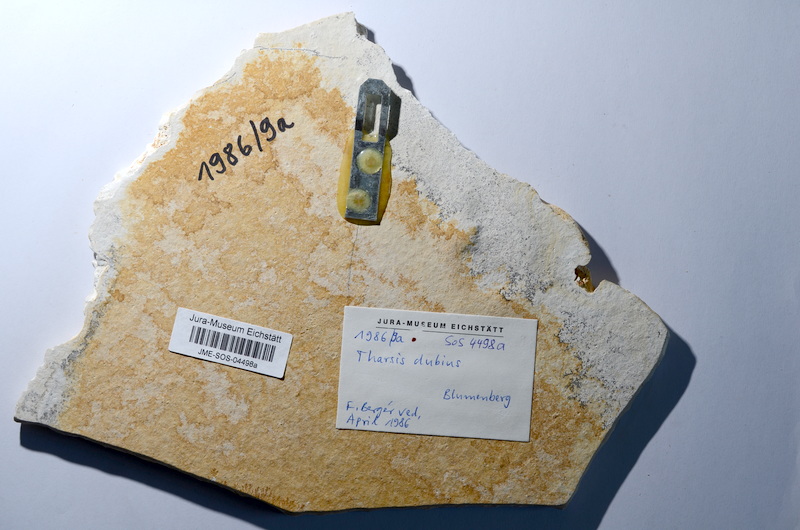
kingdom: Animalia
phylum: Chordata
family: Ascalaboidae
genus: Tharsis
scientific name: Tharsis dubius
